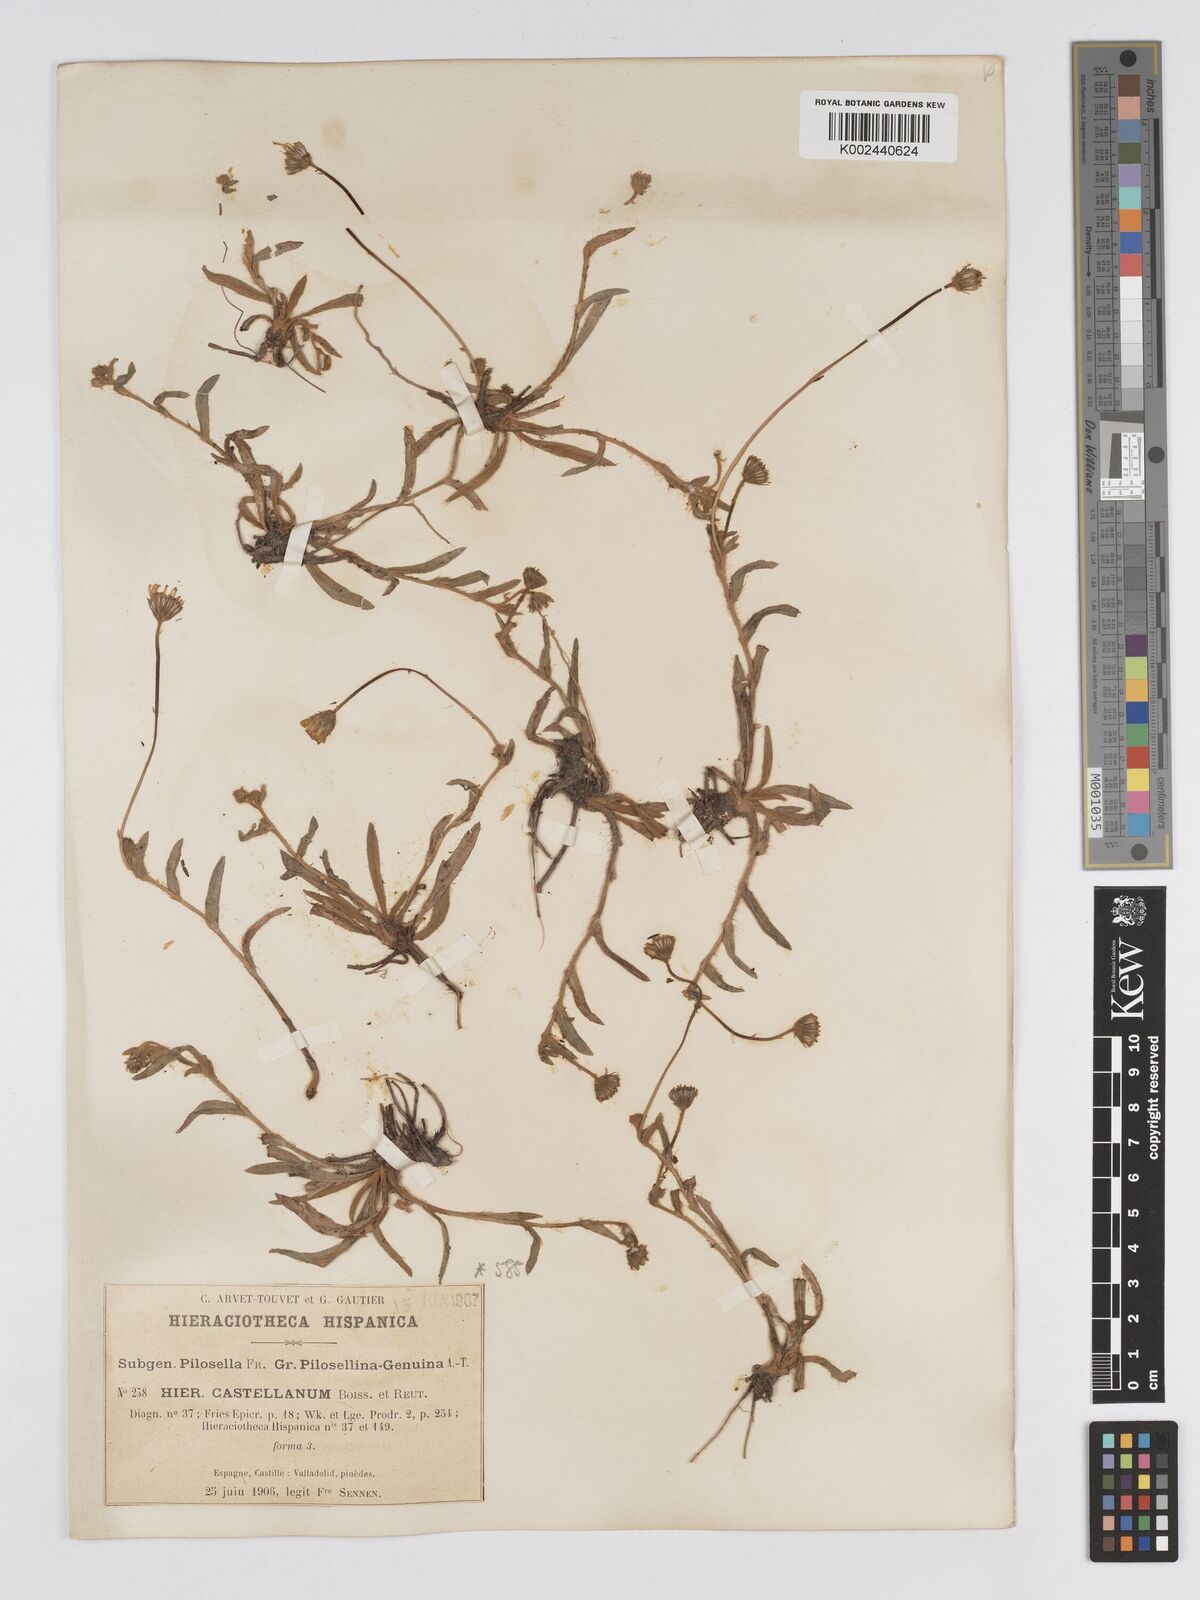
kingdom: Plantae
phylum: Tracheophyta
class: Magnoliopsida
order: Asterales
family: Asteraceae
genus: Pilosella
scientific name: Pilosella castellana
